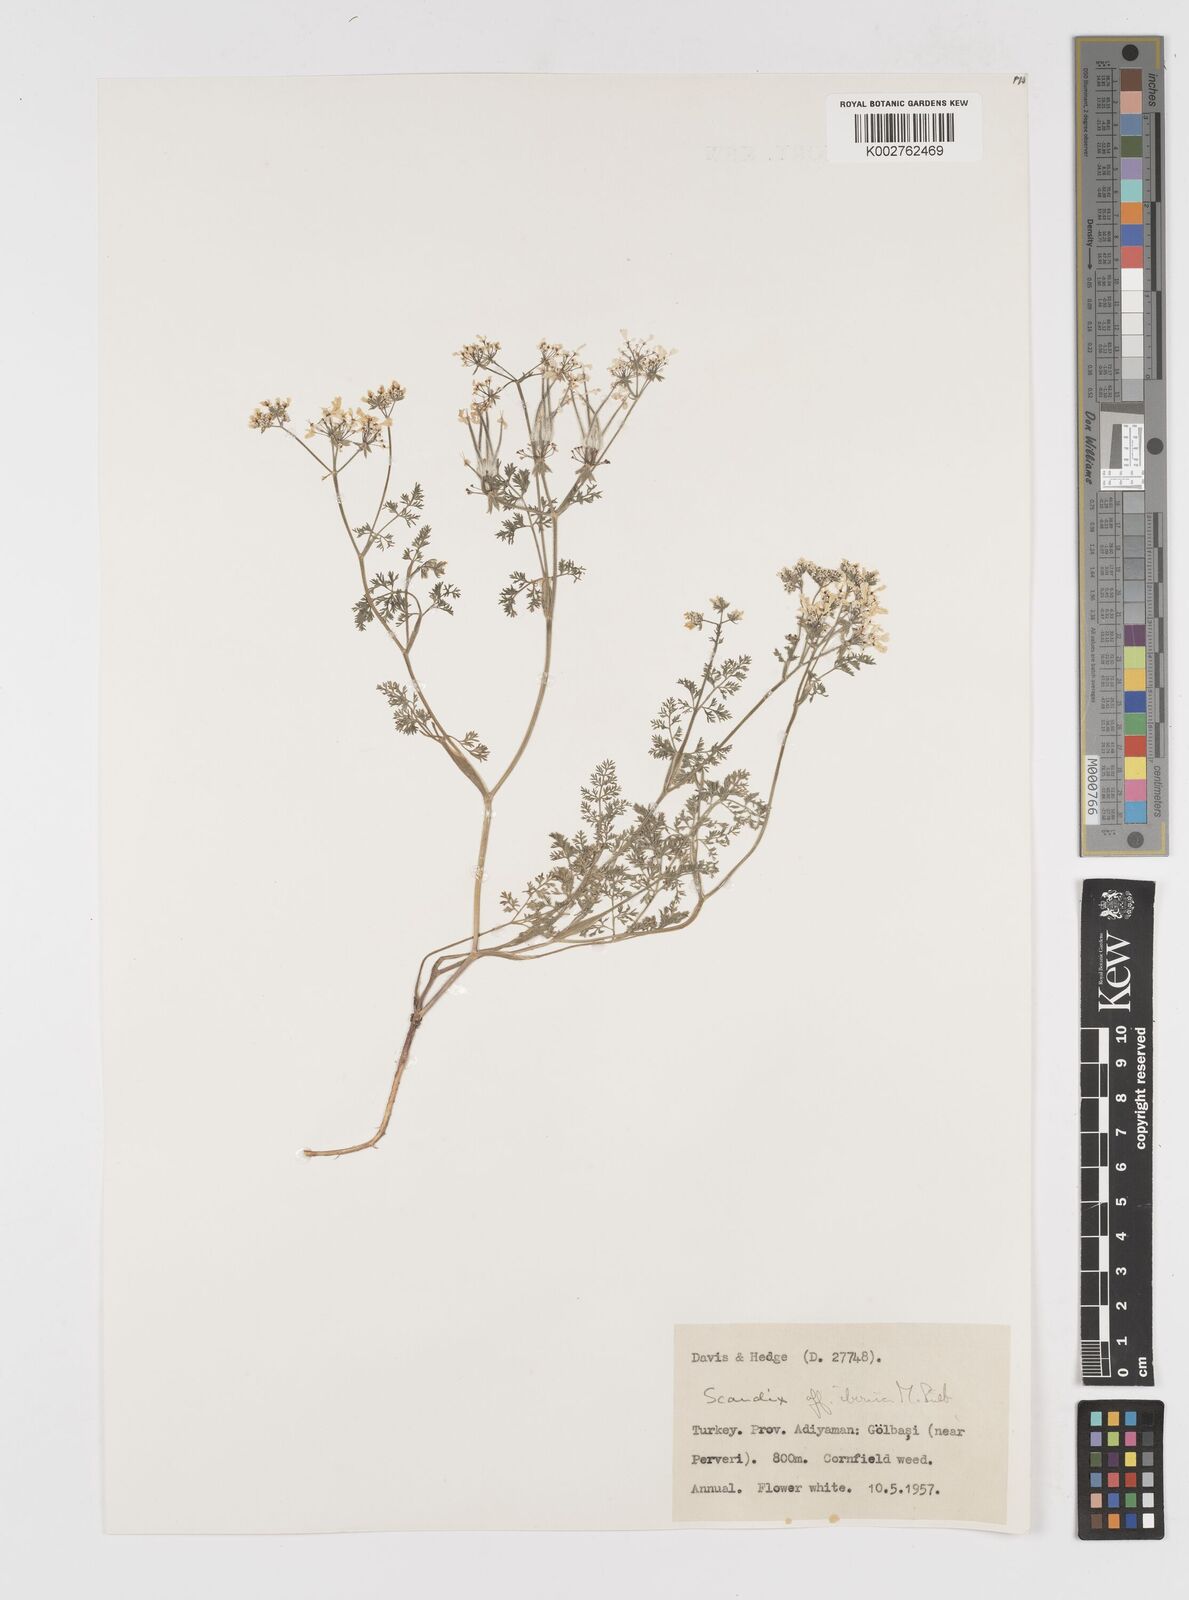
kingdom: Plantae
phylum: Tracheophyta
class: Magnoliopsida
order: Apiales
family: Apiaceae
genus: Scandix
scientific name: Scandix iberica
